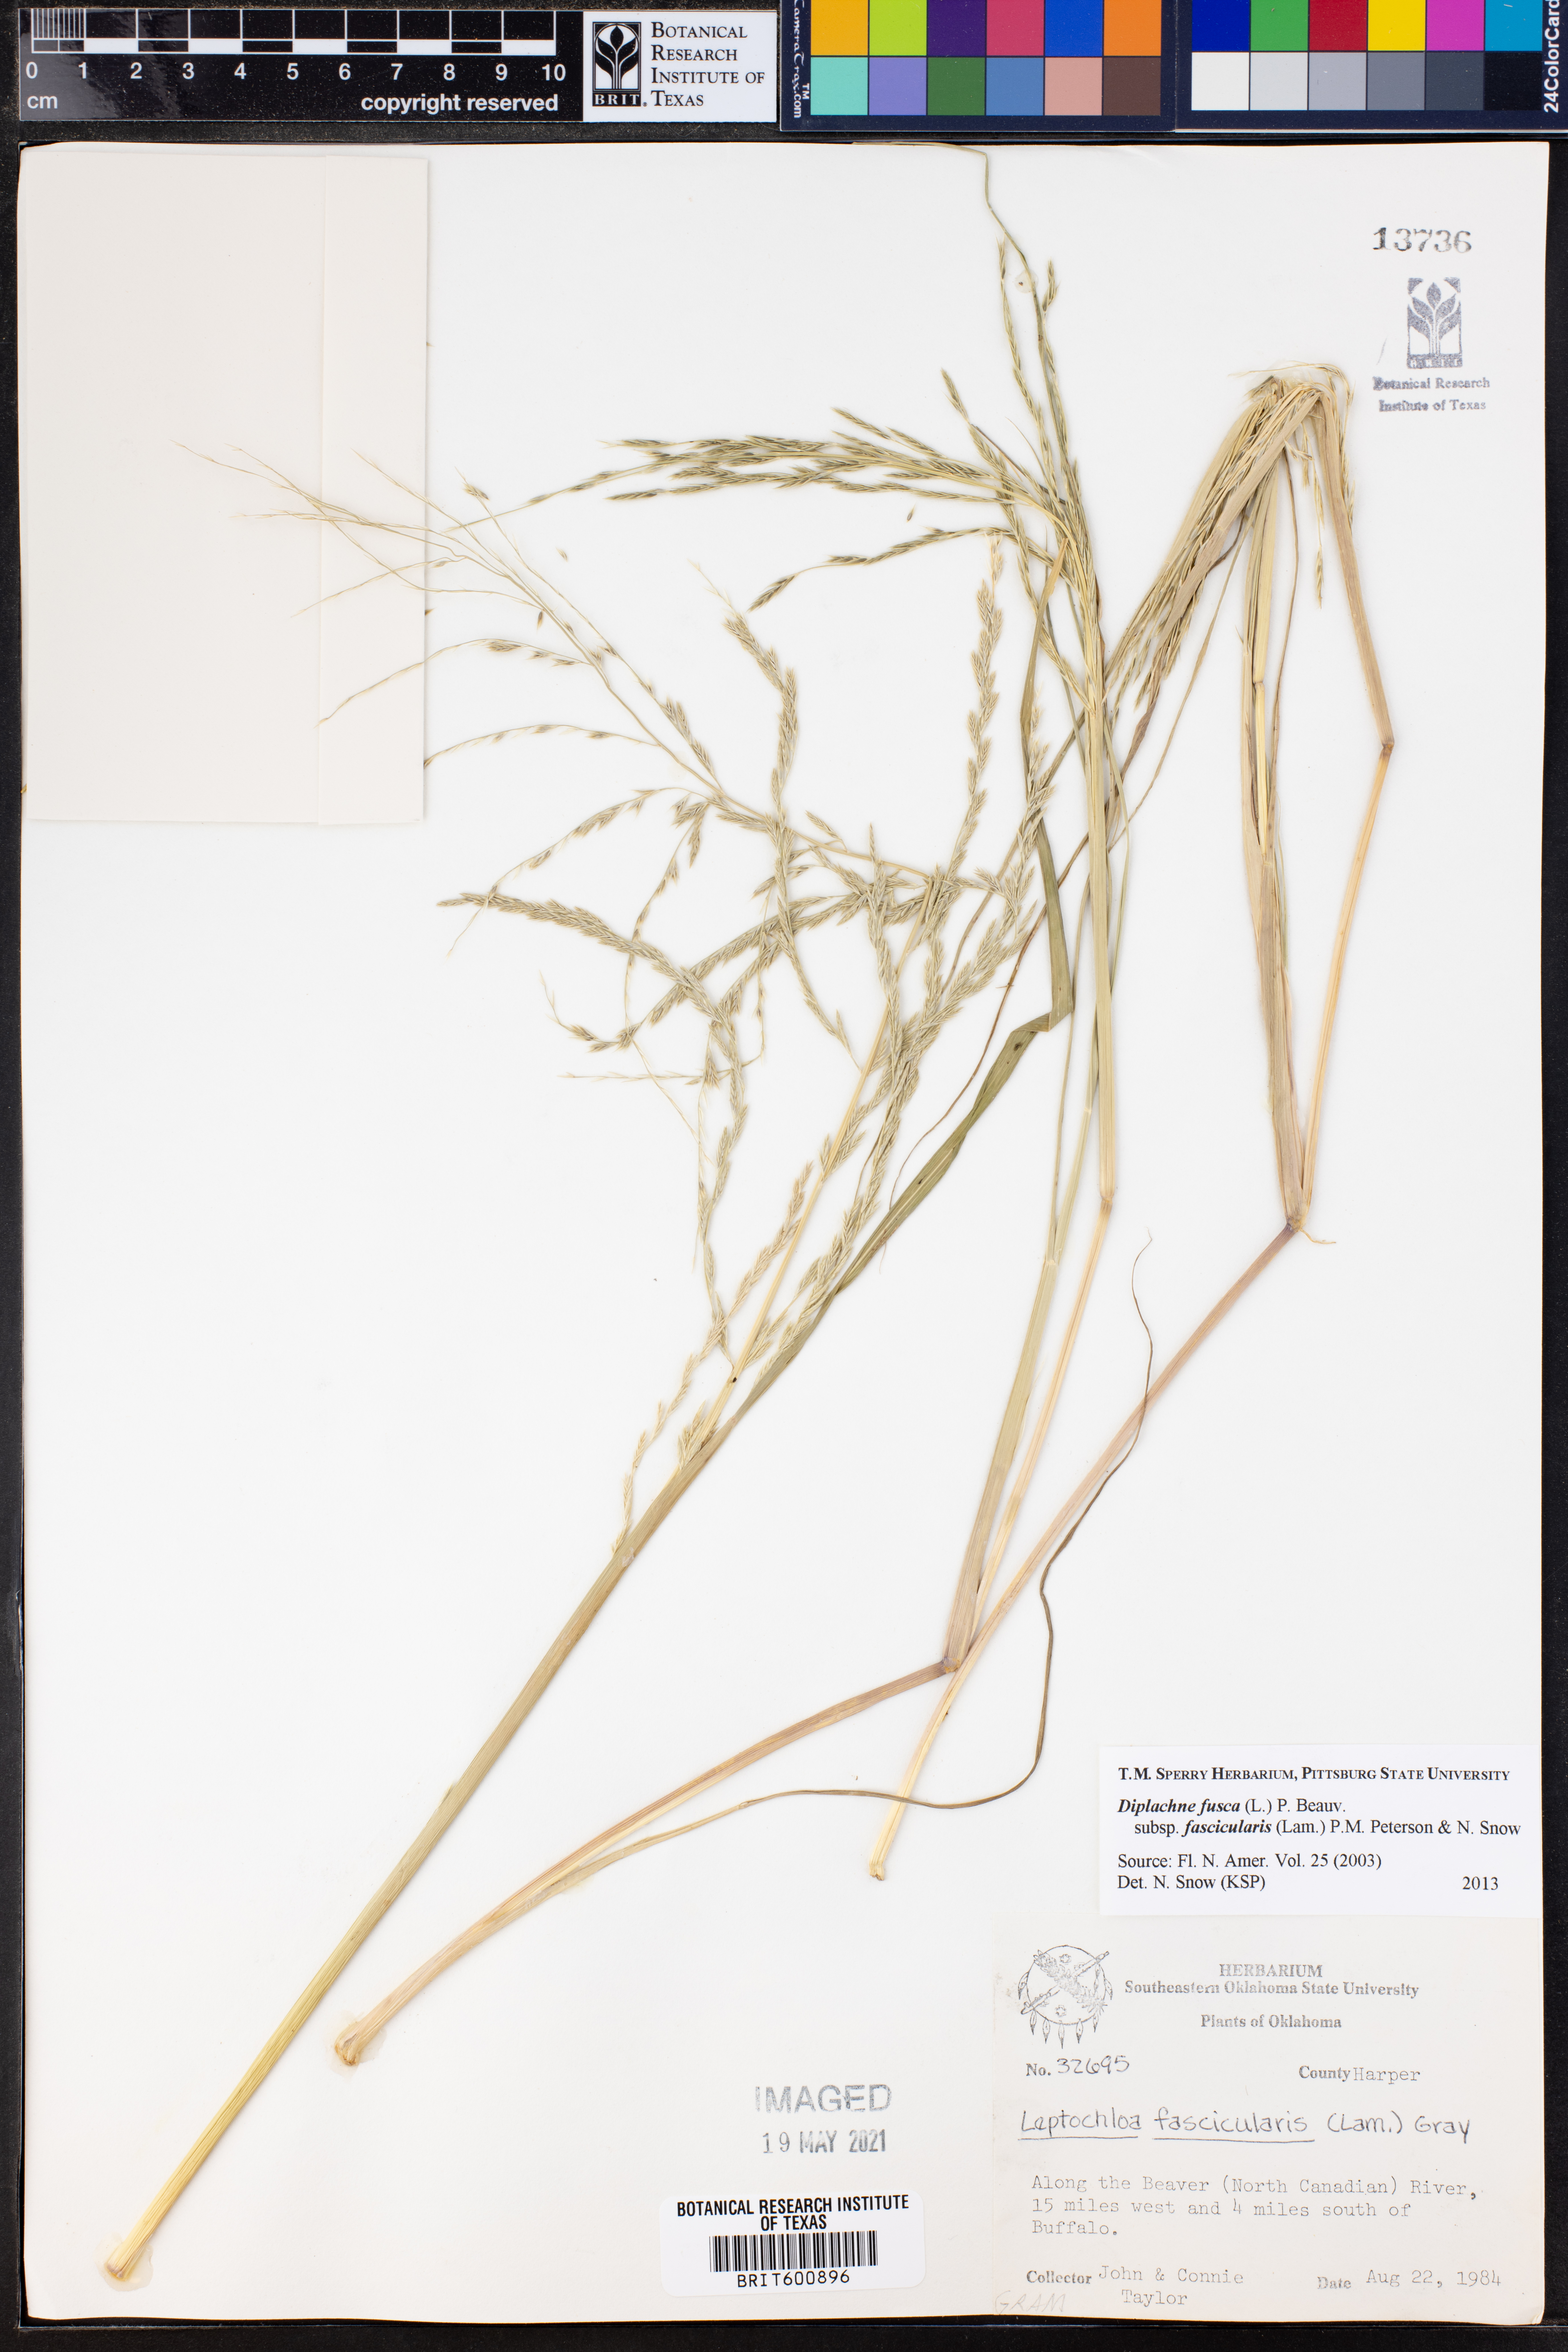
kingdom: Plantae
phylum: Tracheophyta
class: Liliopsida
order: Poales
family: Poaceae
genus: Diplachne
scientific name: Diplachne fusca
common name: Brown beetle grass
